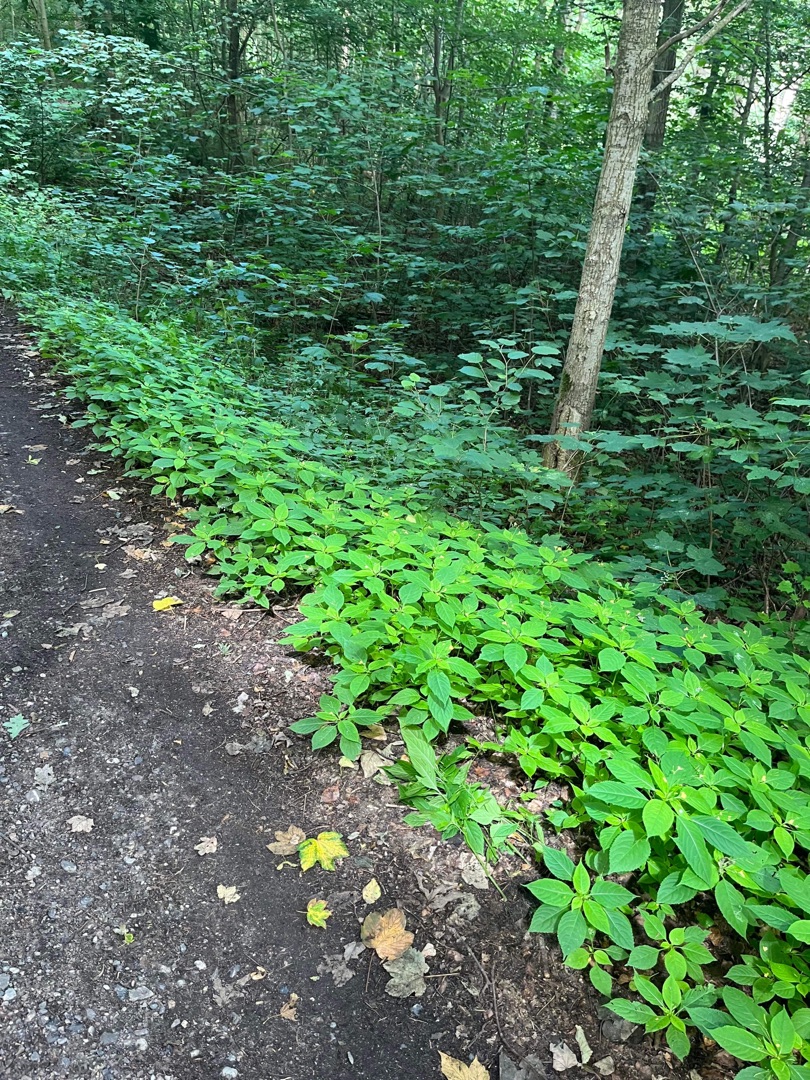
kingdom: Plantae
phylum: Tracheophyta
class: Magnoliopsida
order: Ericales
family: Balsaminaceae
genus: Impatiens
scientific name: Impatiens parviflora
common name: Småblomstret balsamin
